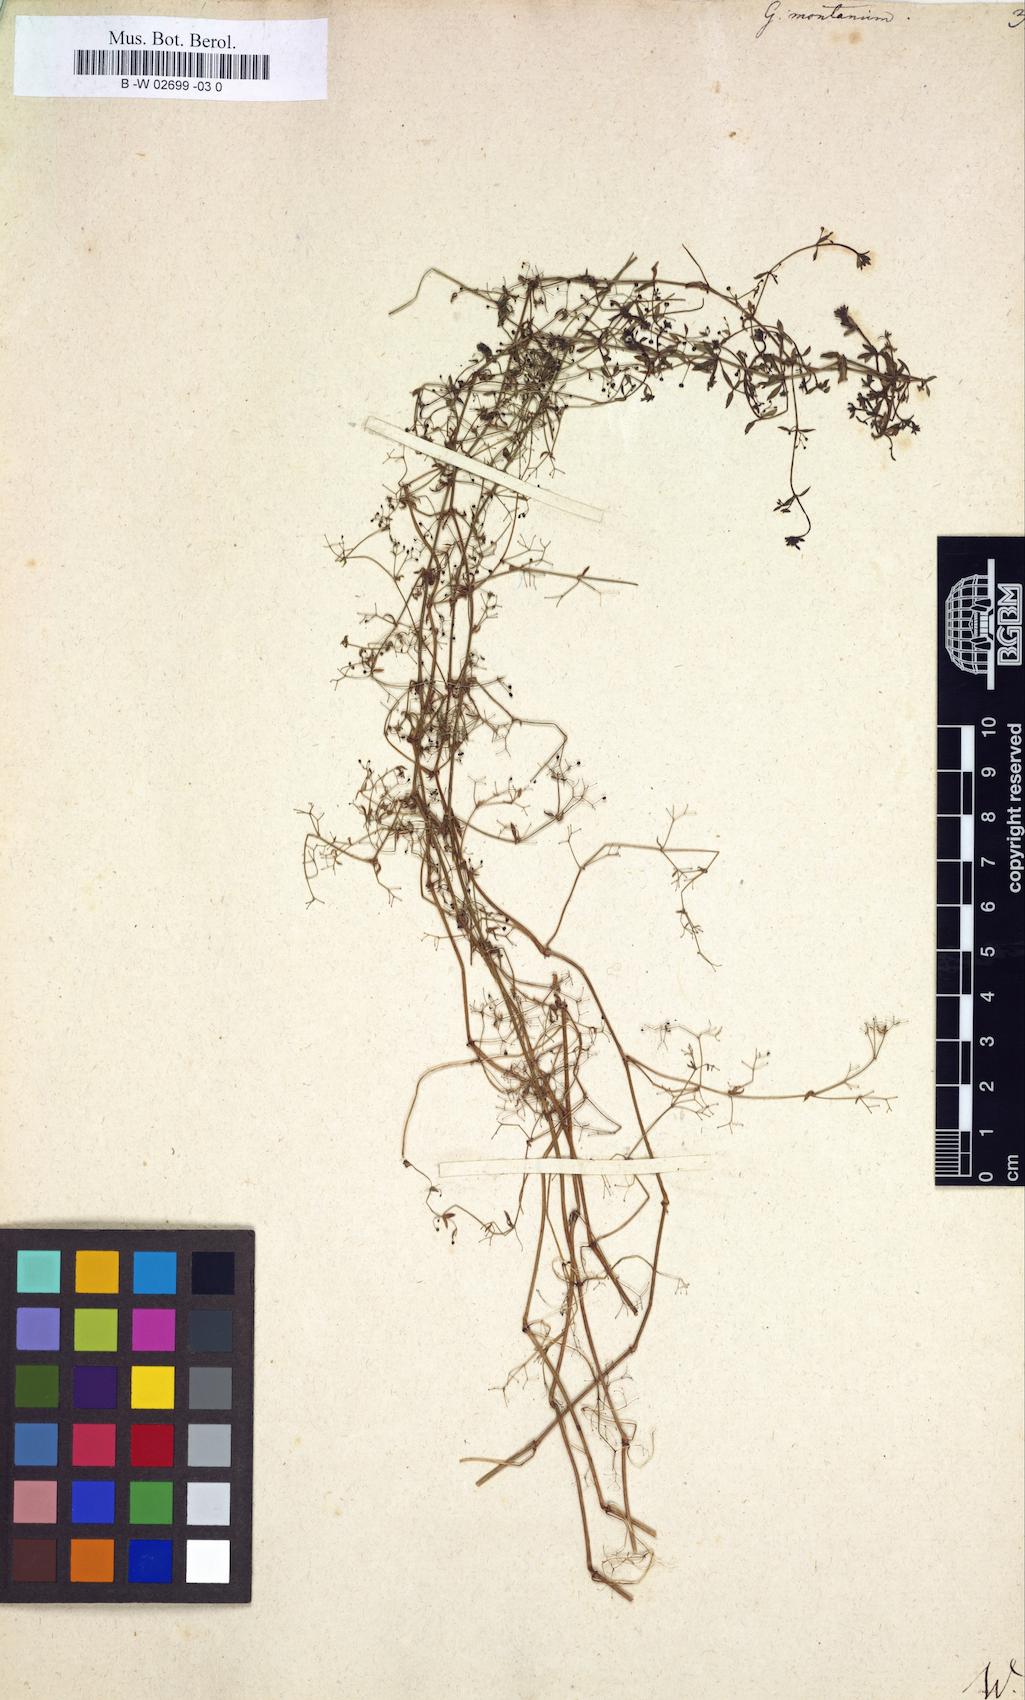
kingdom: Plantae
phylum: Tracheophyta
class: Magnoliopsida
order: Gentianales
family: Rubiaceae
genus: Galium
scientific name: Galium
